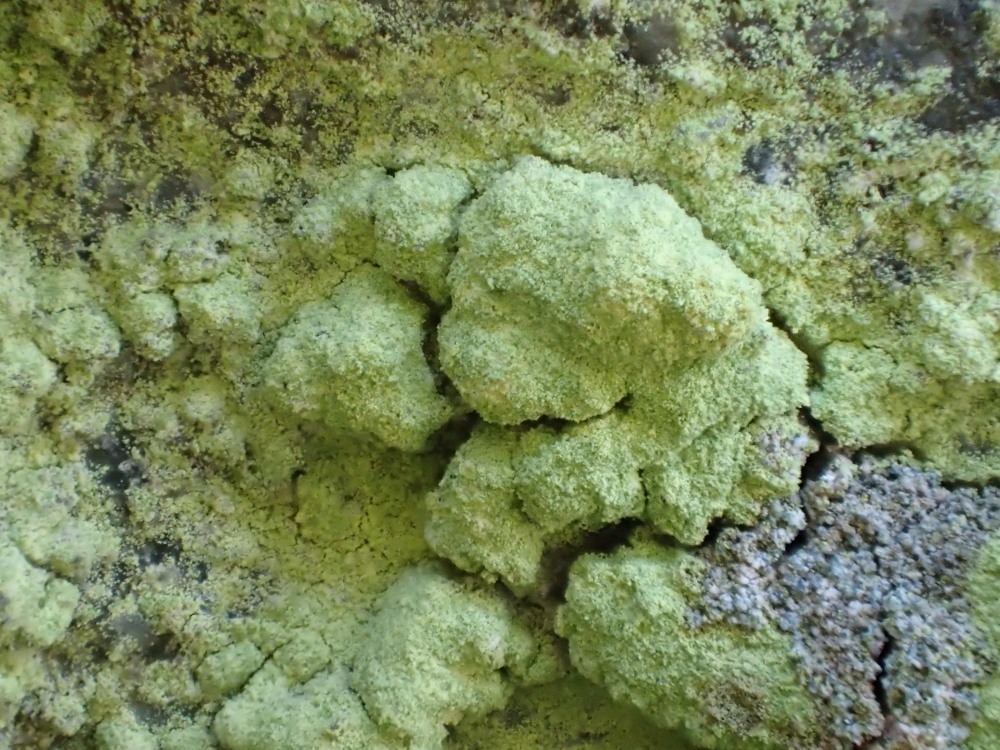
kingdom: Fungi
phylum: Ascomycota
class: Lecanoromycetes
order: Lecanorales
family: Psilolechiaceae
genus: Psilolechia
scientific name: Psilolechia lucida
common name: gul skyggelav
